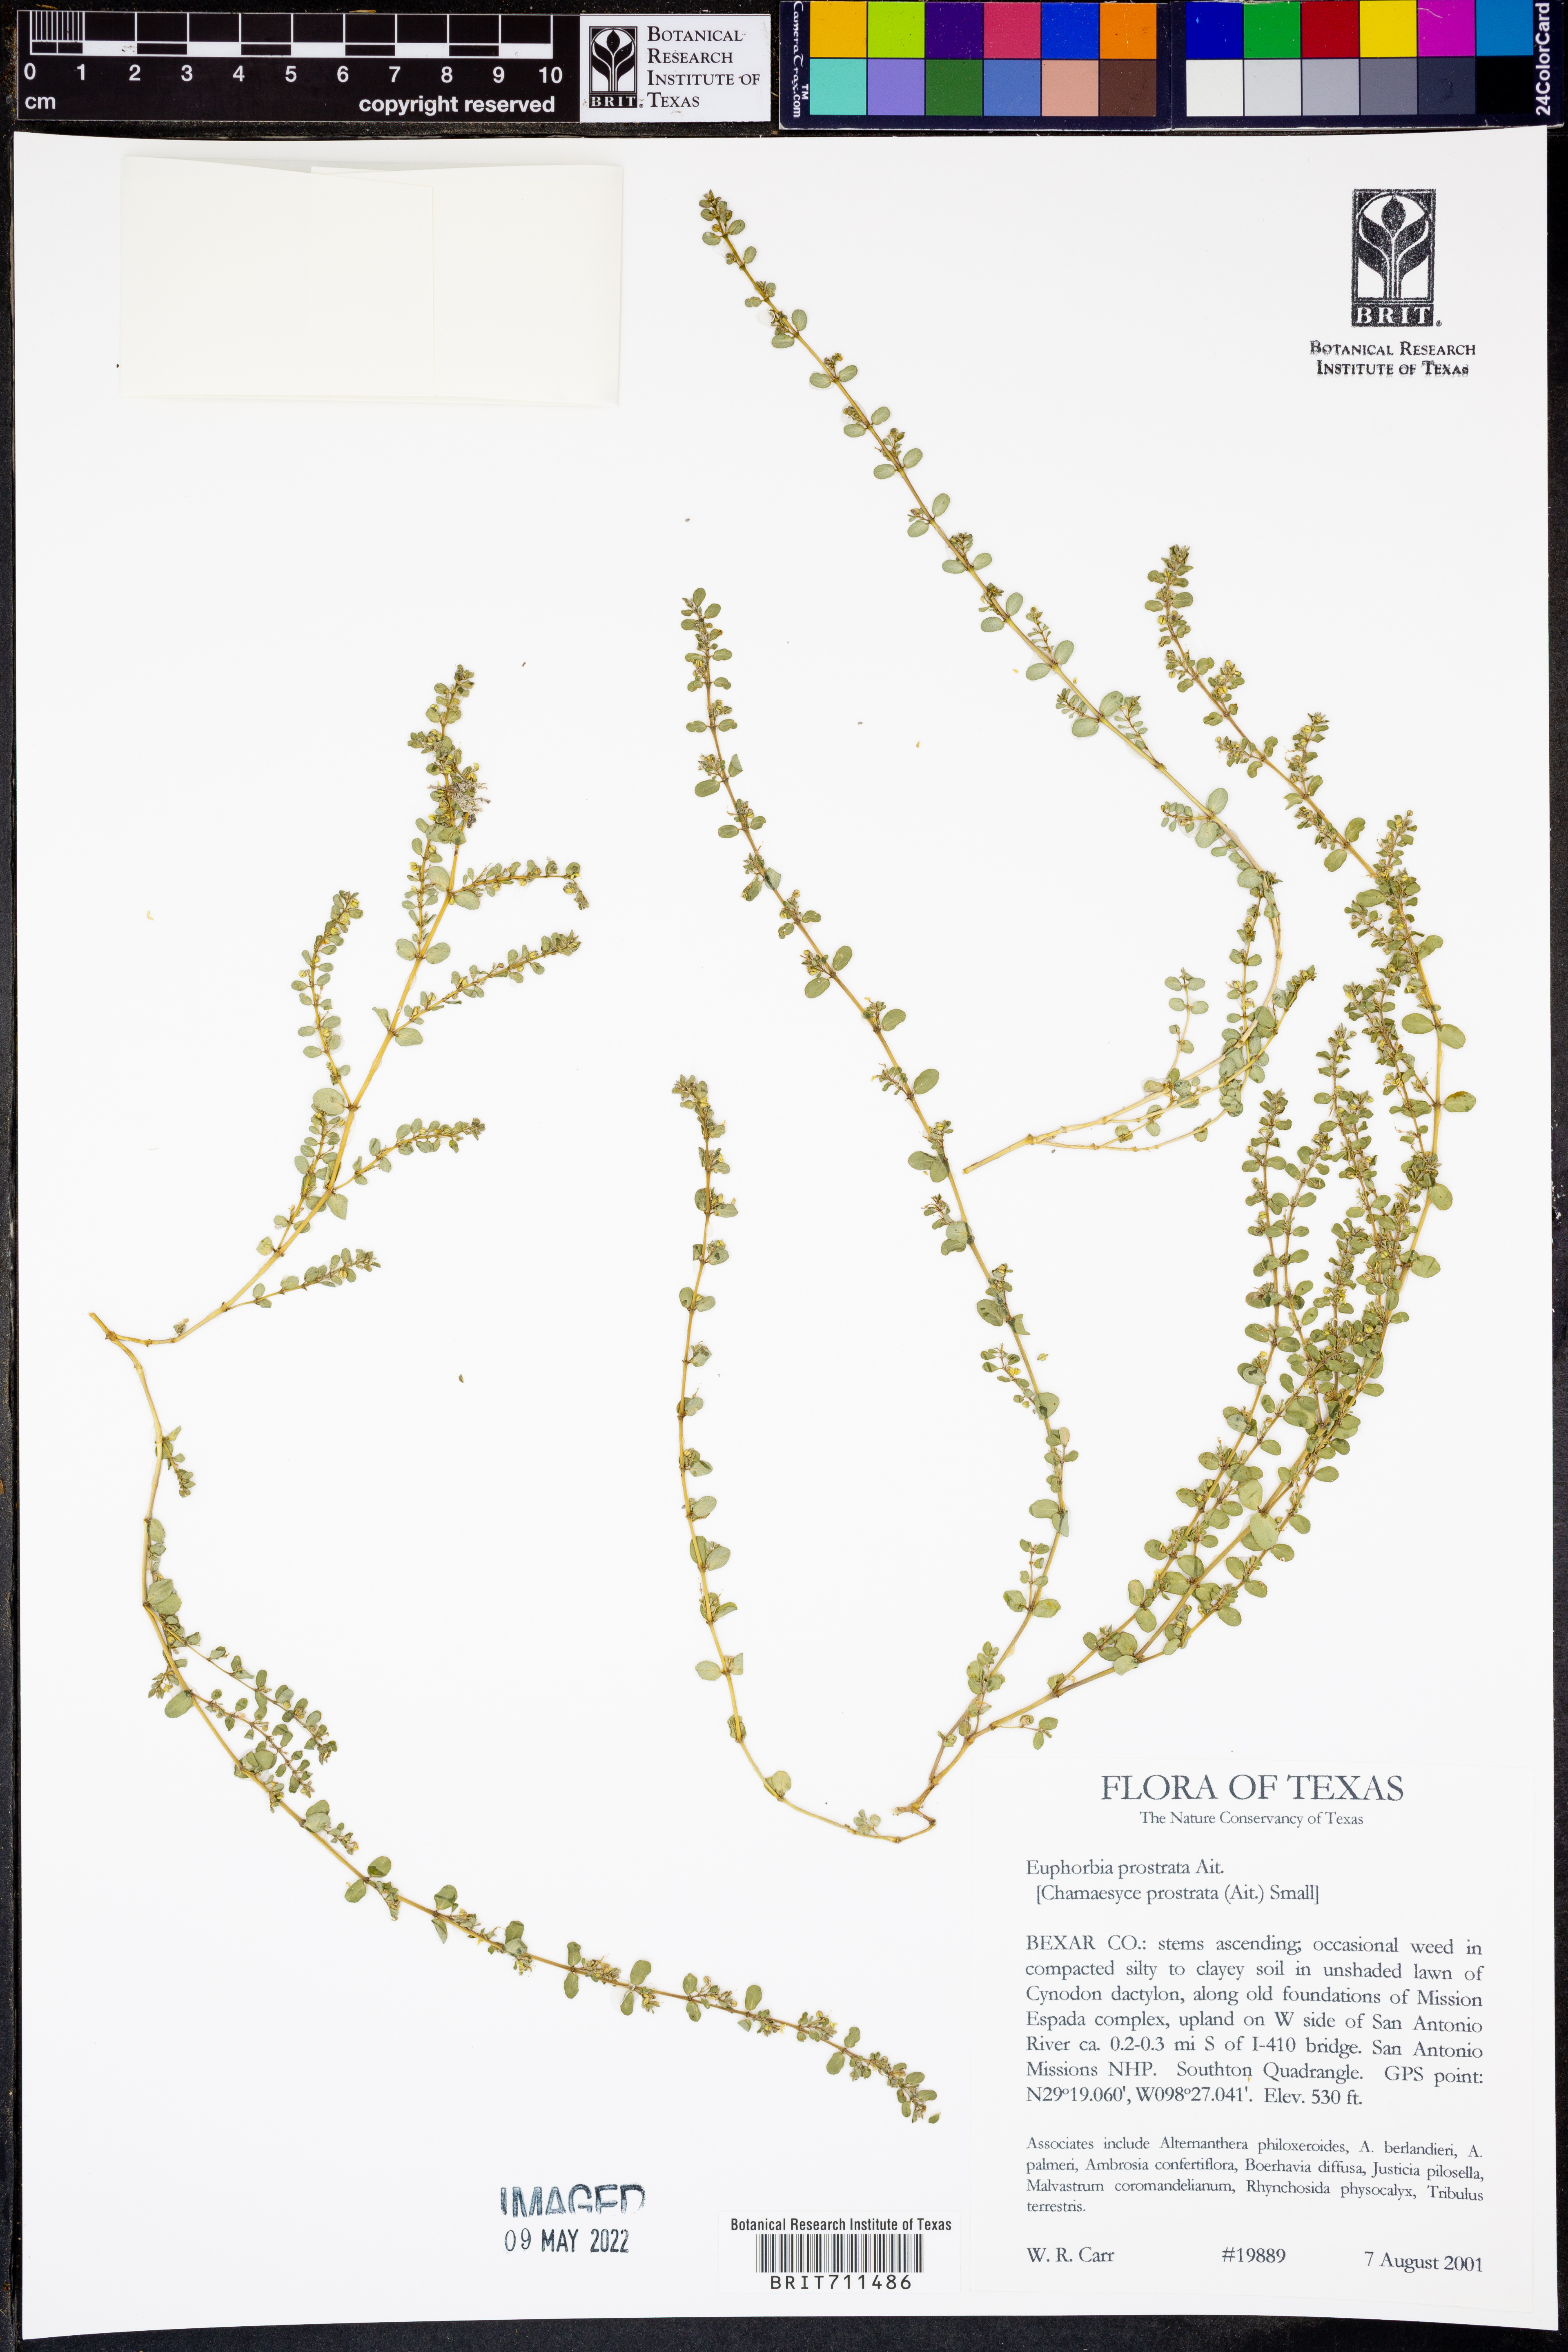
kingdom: Plantae
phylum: Tracheophyta
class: Magnoliopsida
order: Malpighiales
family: Euphorbiaceae
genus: Euphorbia
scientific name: Euphorbia prostrata
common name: Prostrate sandmat
